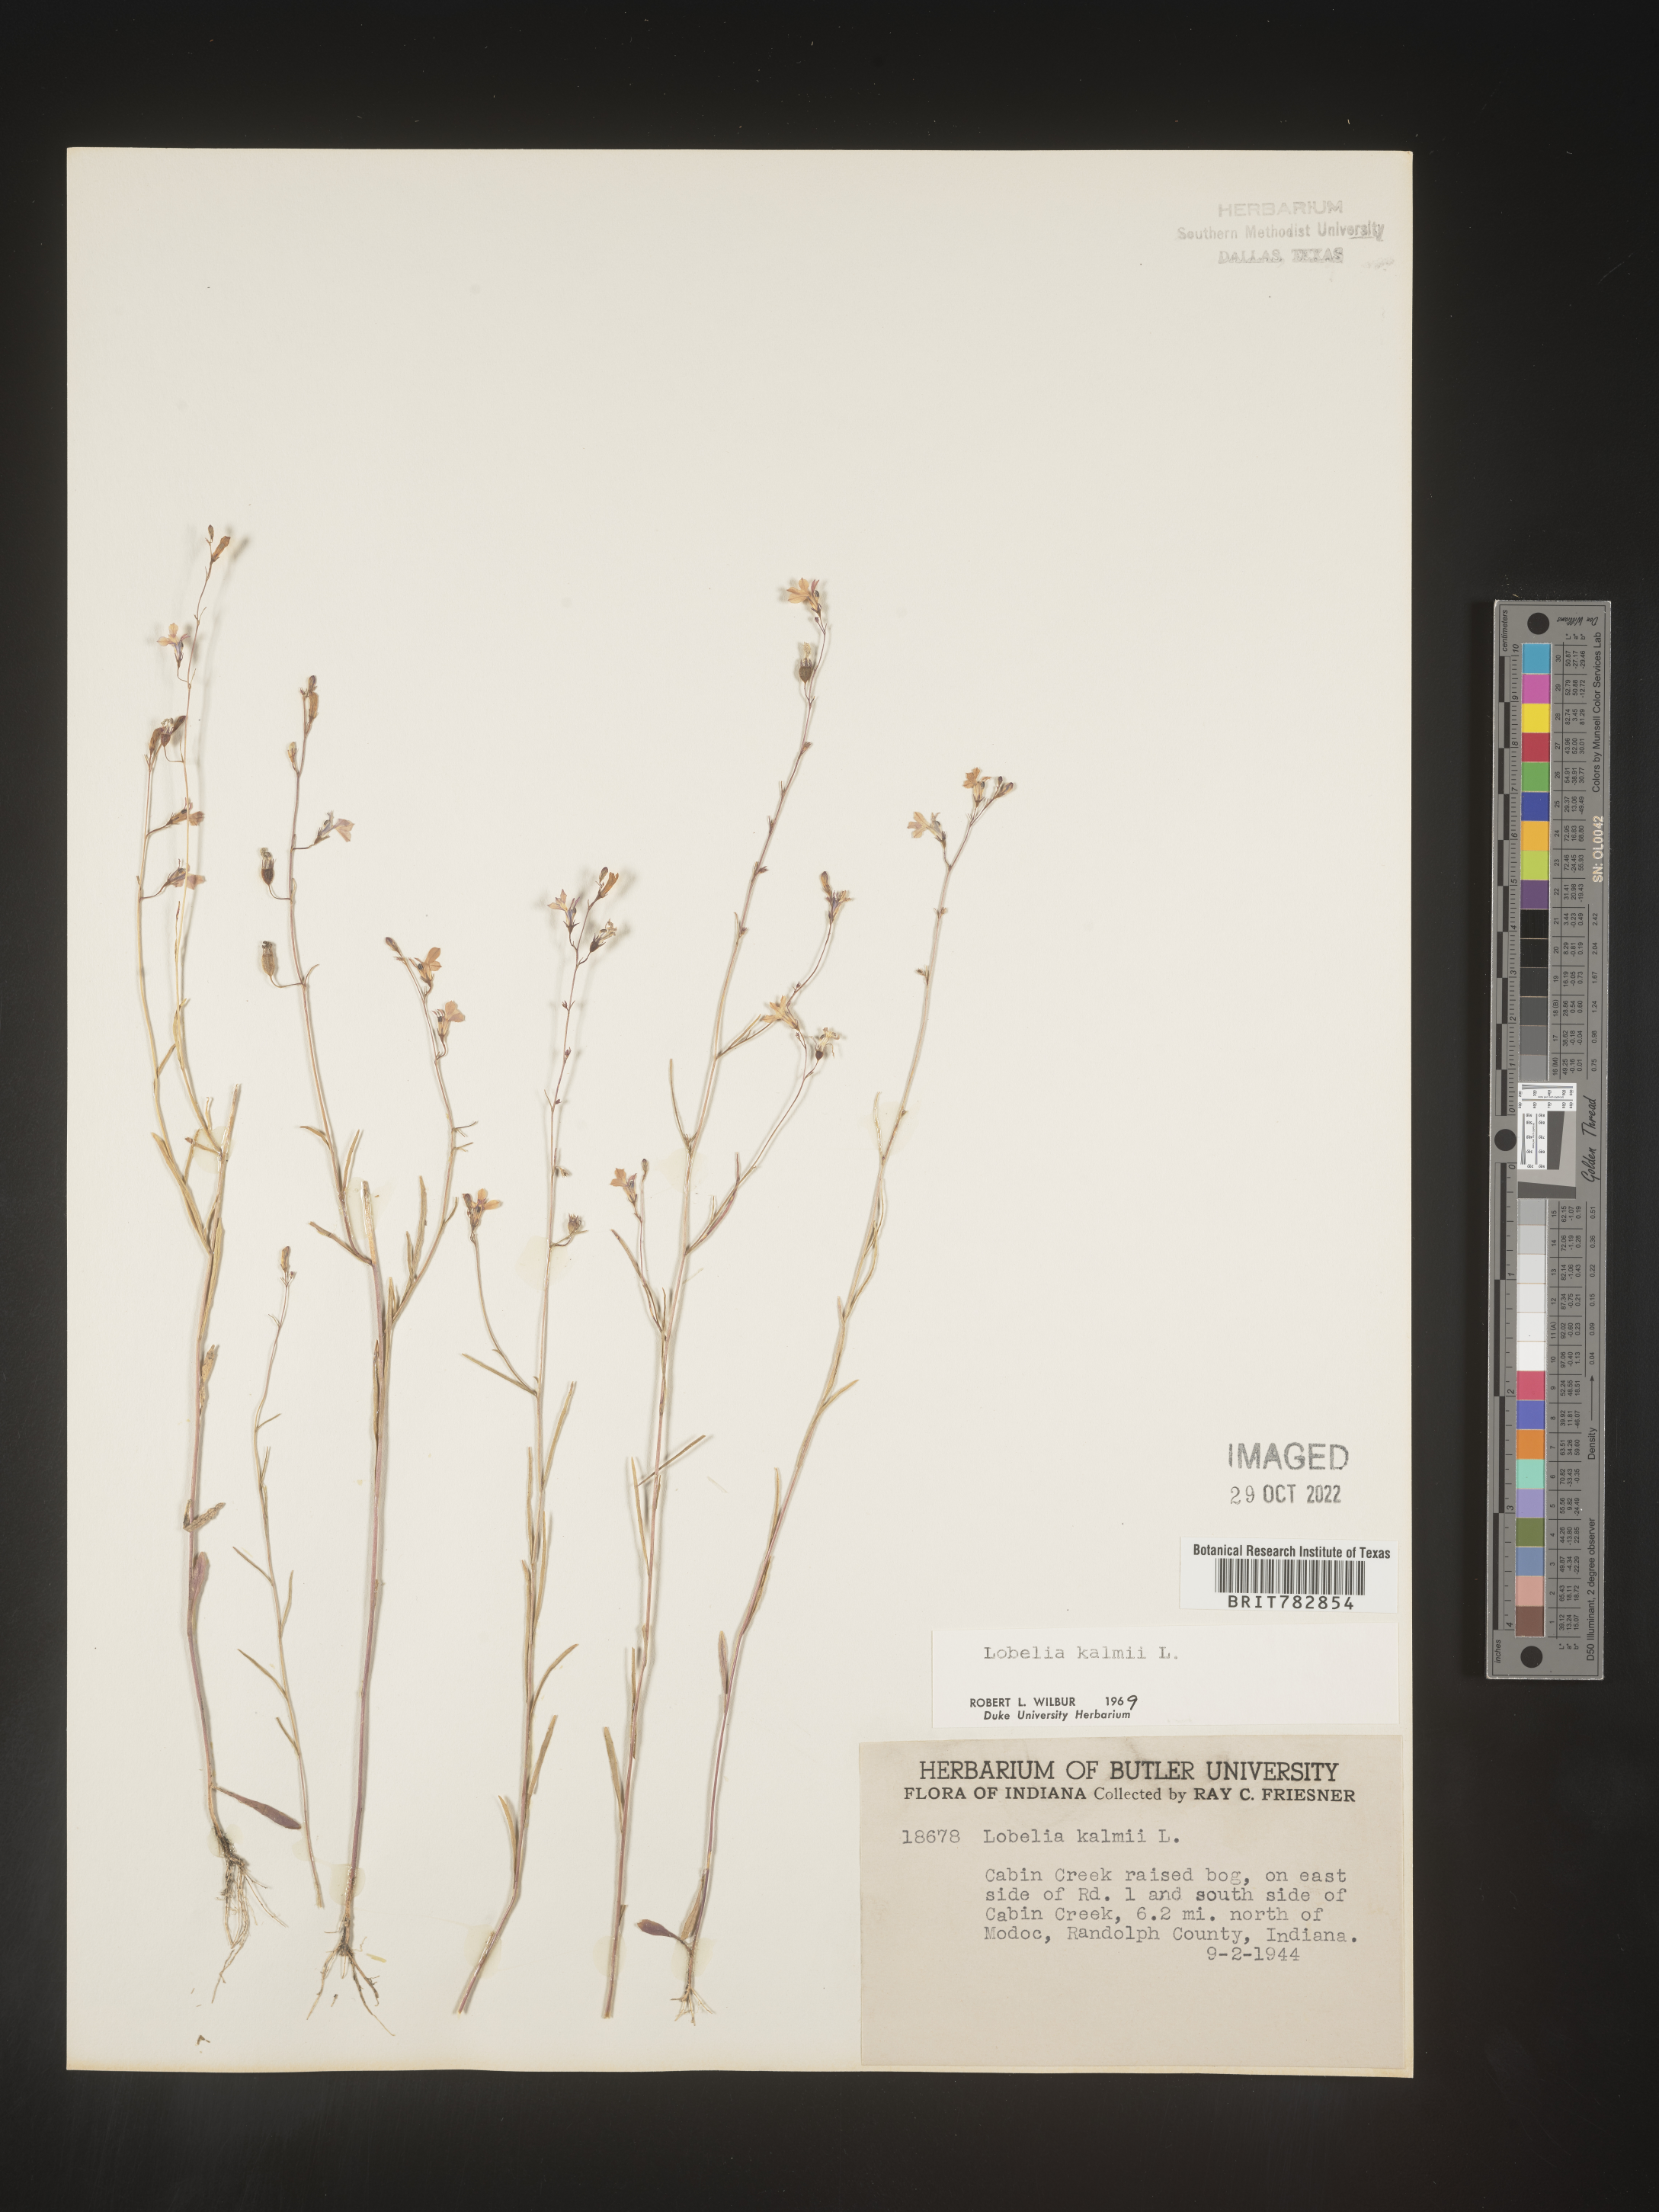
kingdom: Plantae
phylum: Tracheophyta
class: Magnoliopsida
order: Asterales
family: Campanulaceae
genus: Lobelia
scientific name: Lobelia
